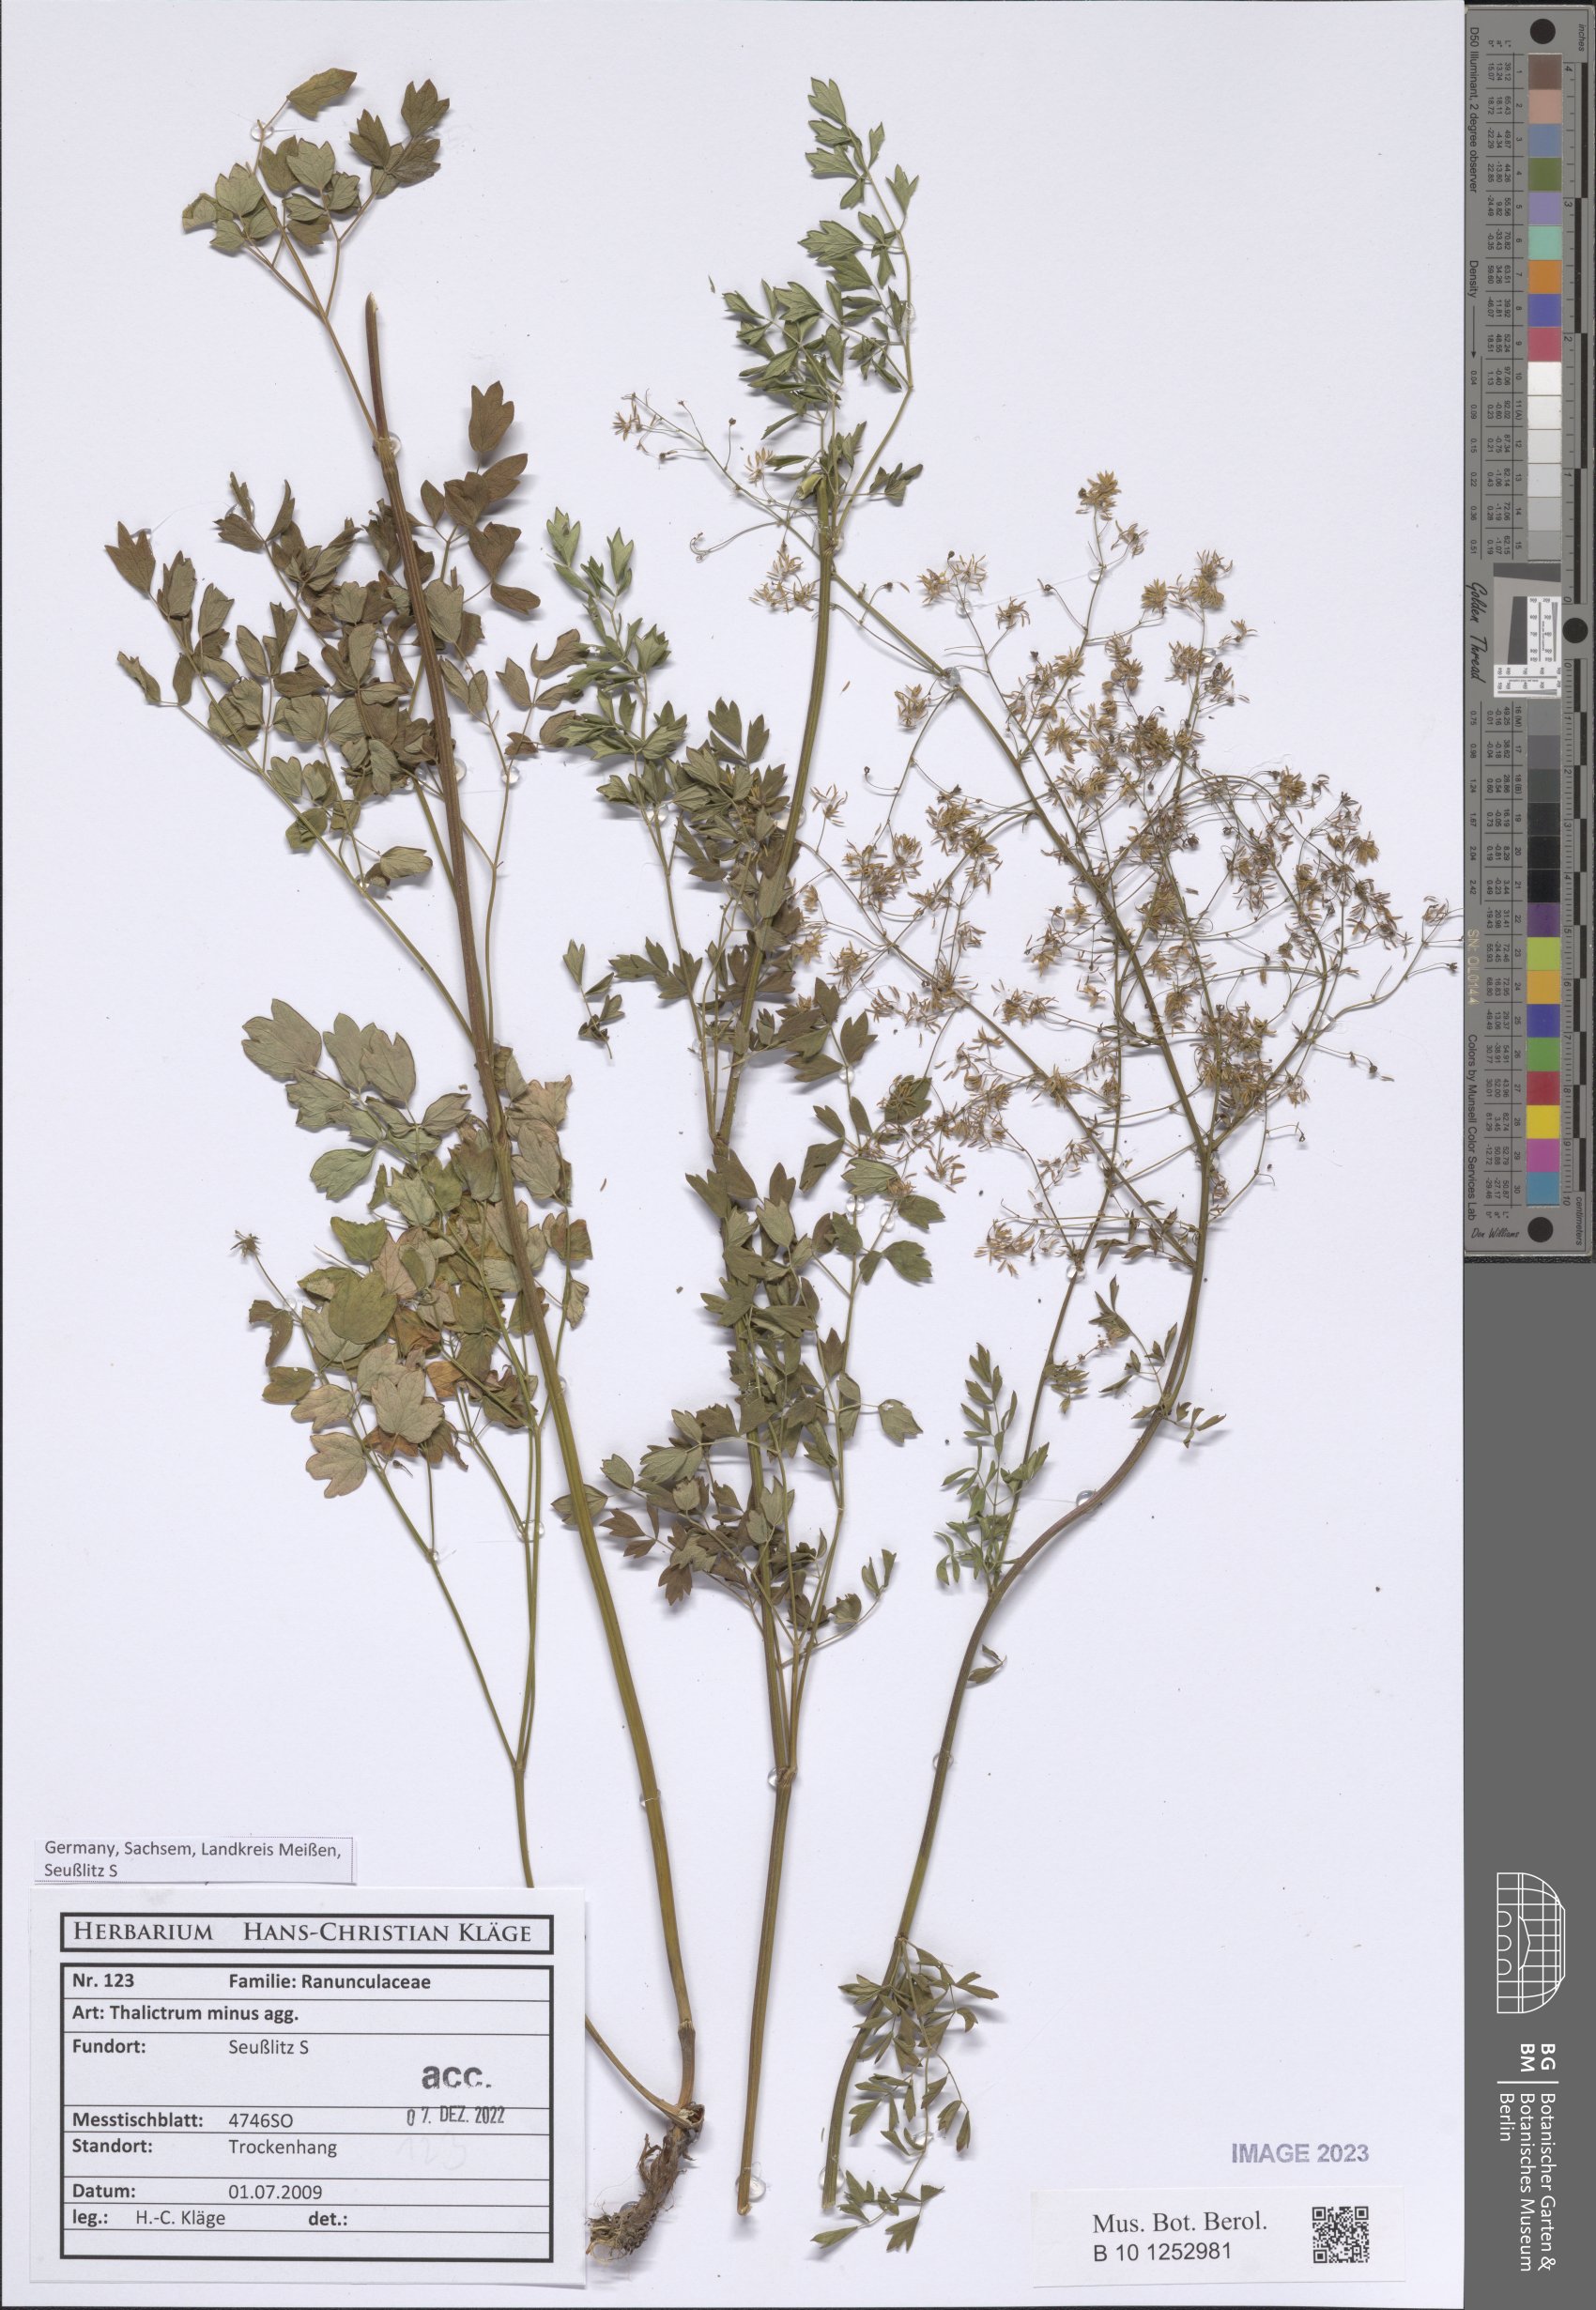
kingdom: Plantae
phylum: Tracheophyta
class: Magnoliopsida
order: Ranunculales
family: Ranunculaceae
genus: Thalictrum
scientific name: Thalictrum minus
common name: Lesser meadow-rue
